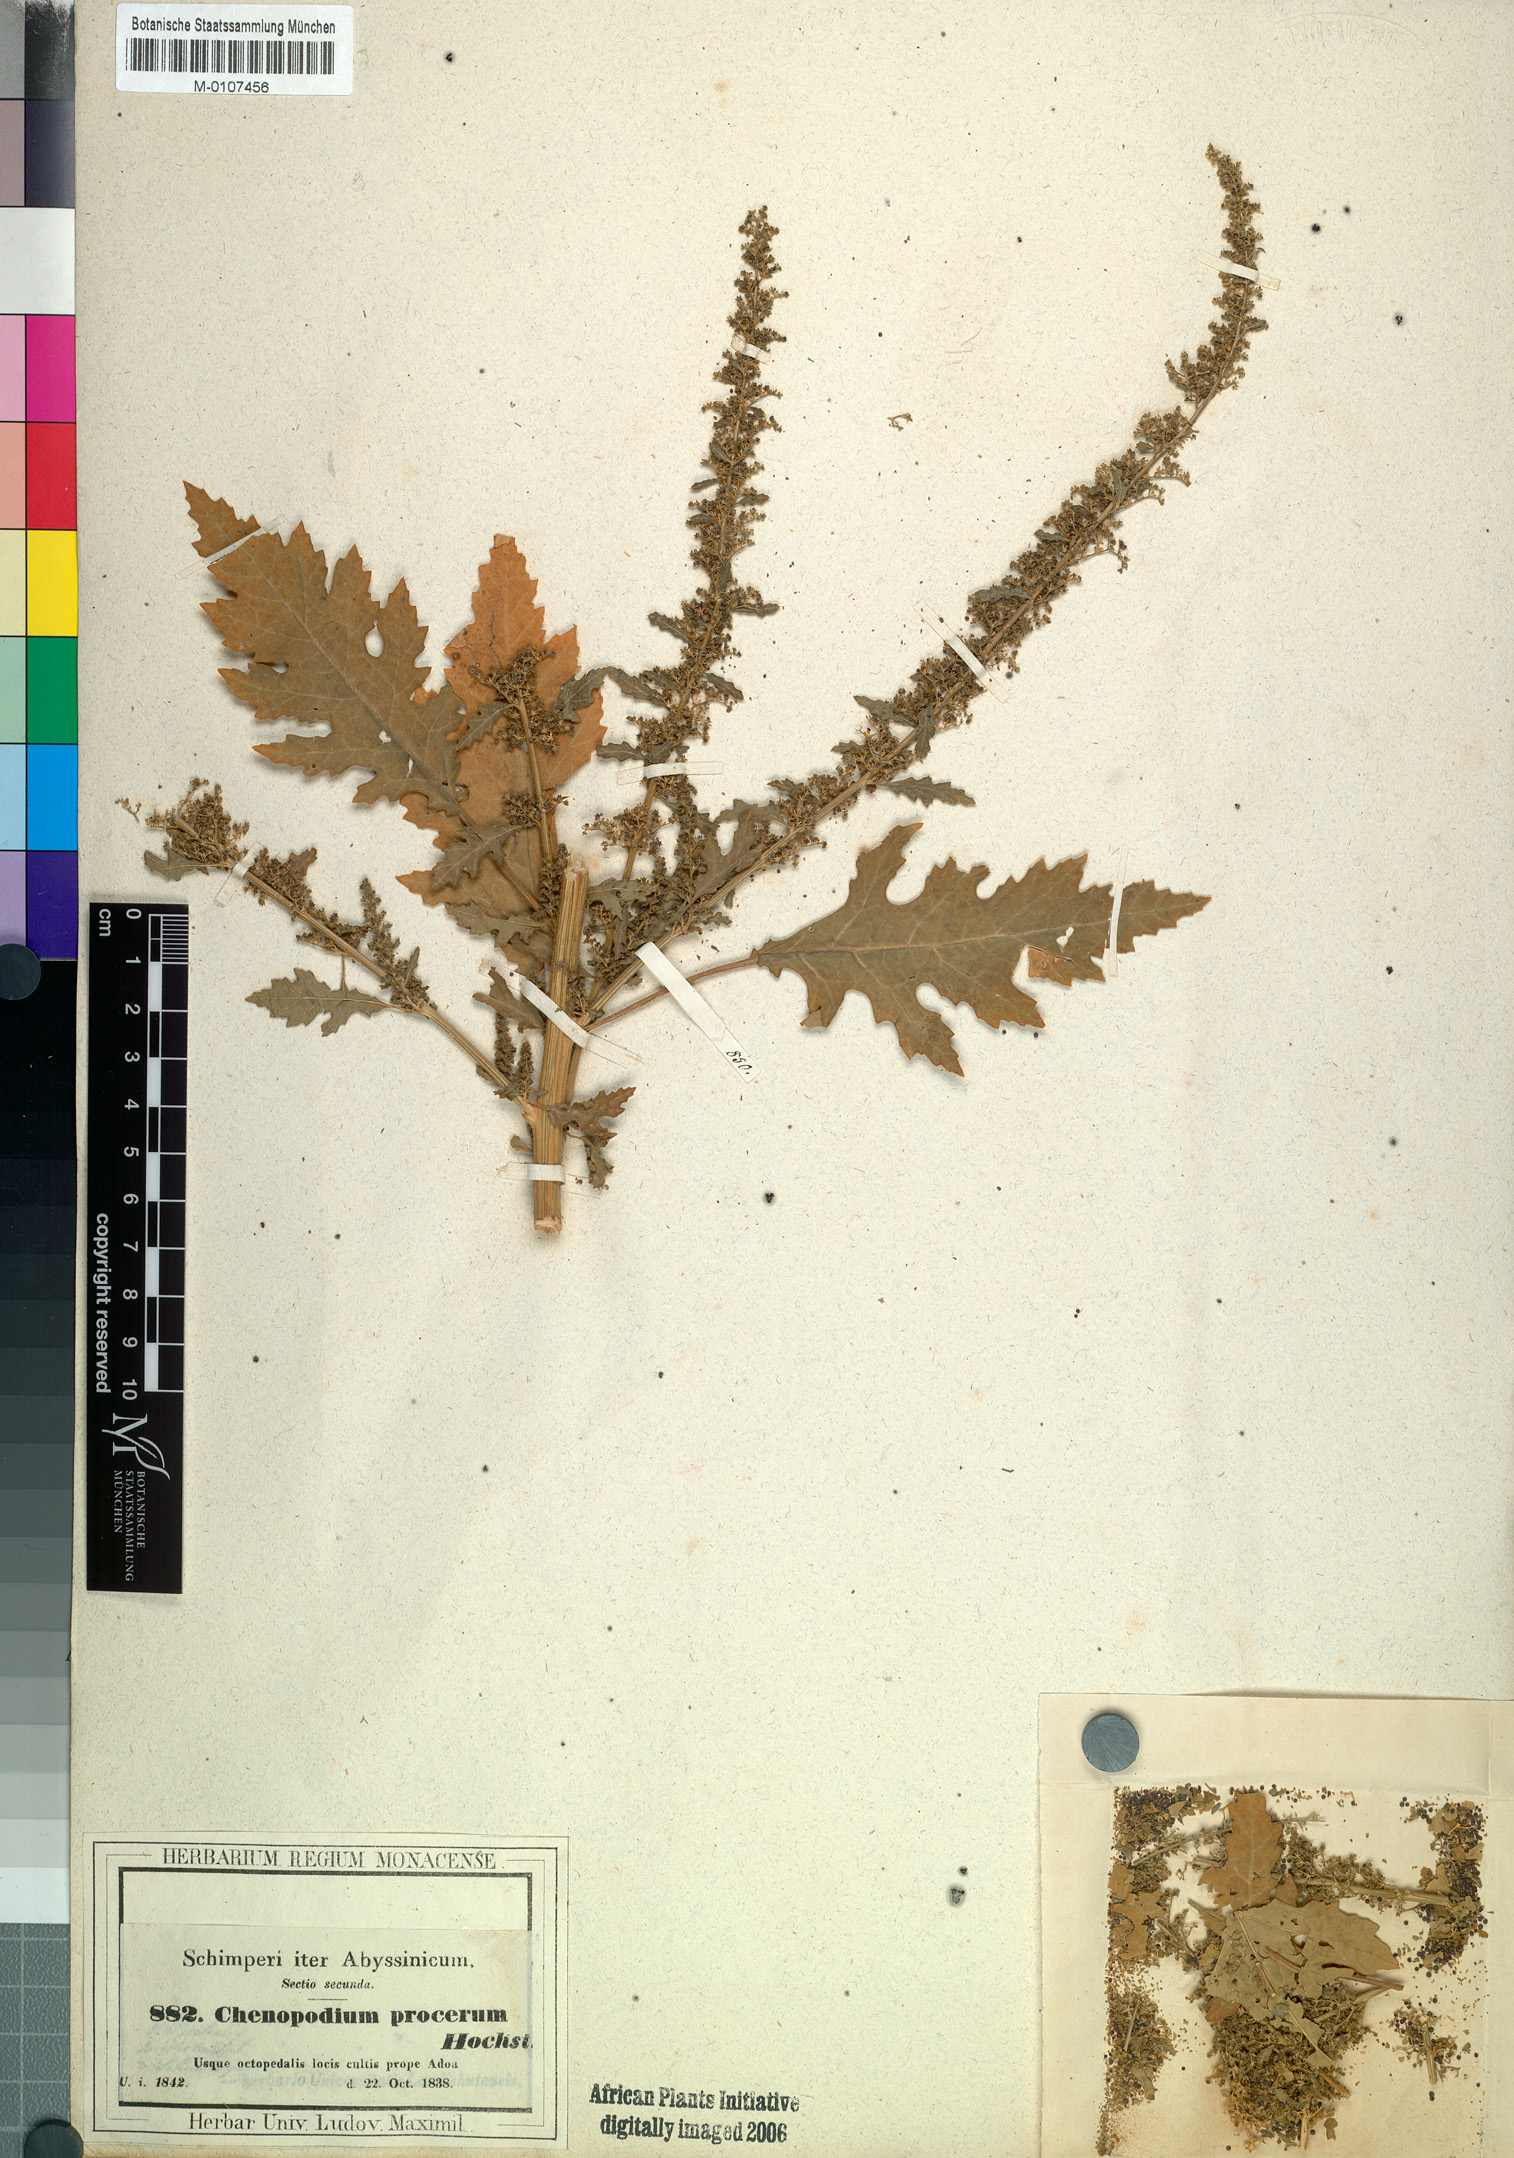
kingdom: Plantae
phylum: Tracheophyta
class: Magnoliopsida
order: Caryophyllales
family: Amaranthaceae
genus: Dysphania
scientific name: Dysphania procera
